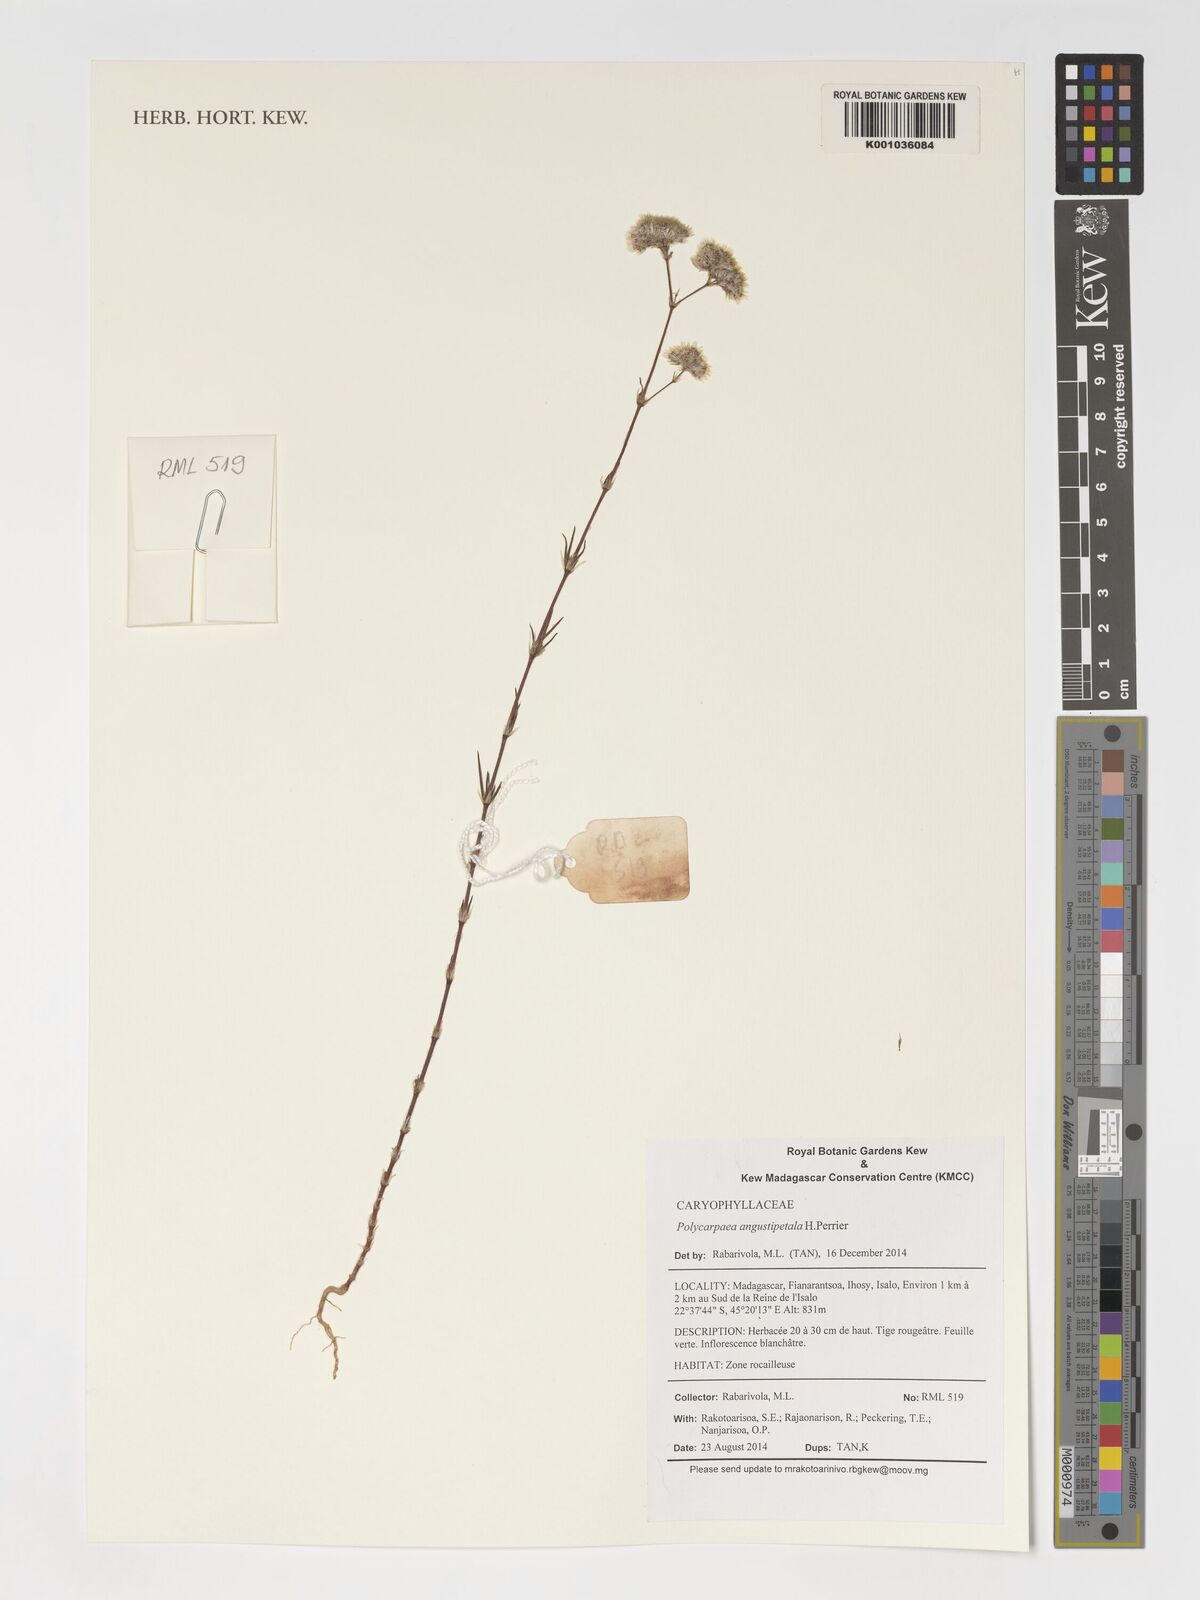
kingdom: Plantae
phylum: Tracheophyta
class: Magnoliopsida
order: Caryophyllales
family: Caryophyllaceae
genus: Polycarpaea
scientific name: Polycarpaea angustipetala
